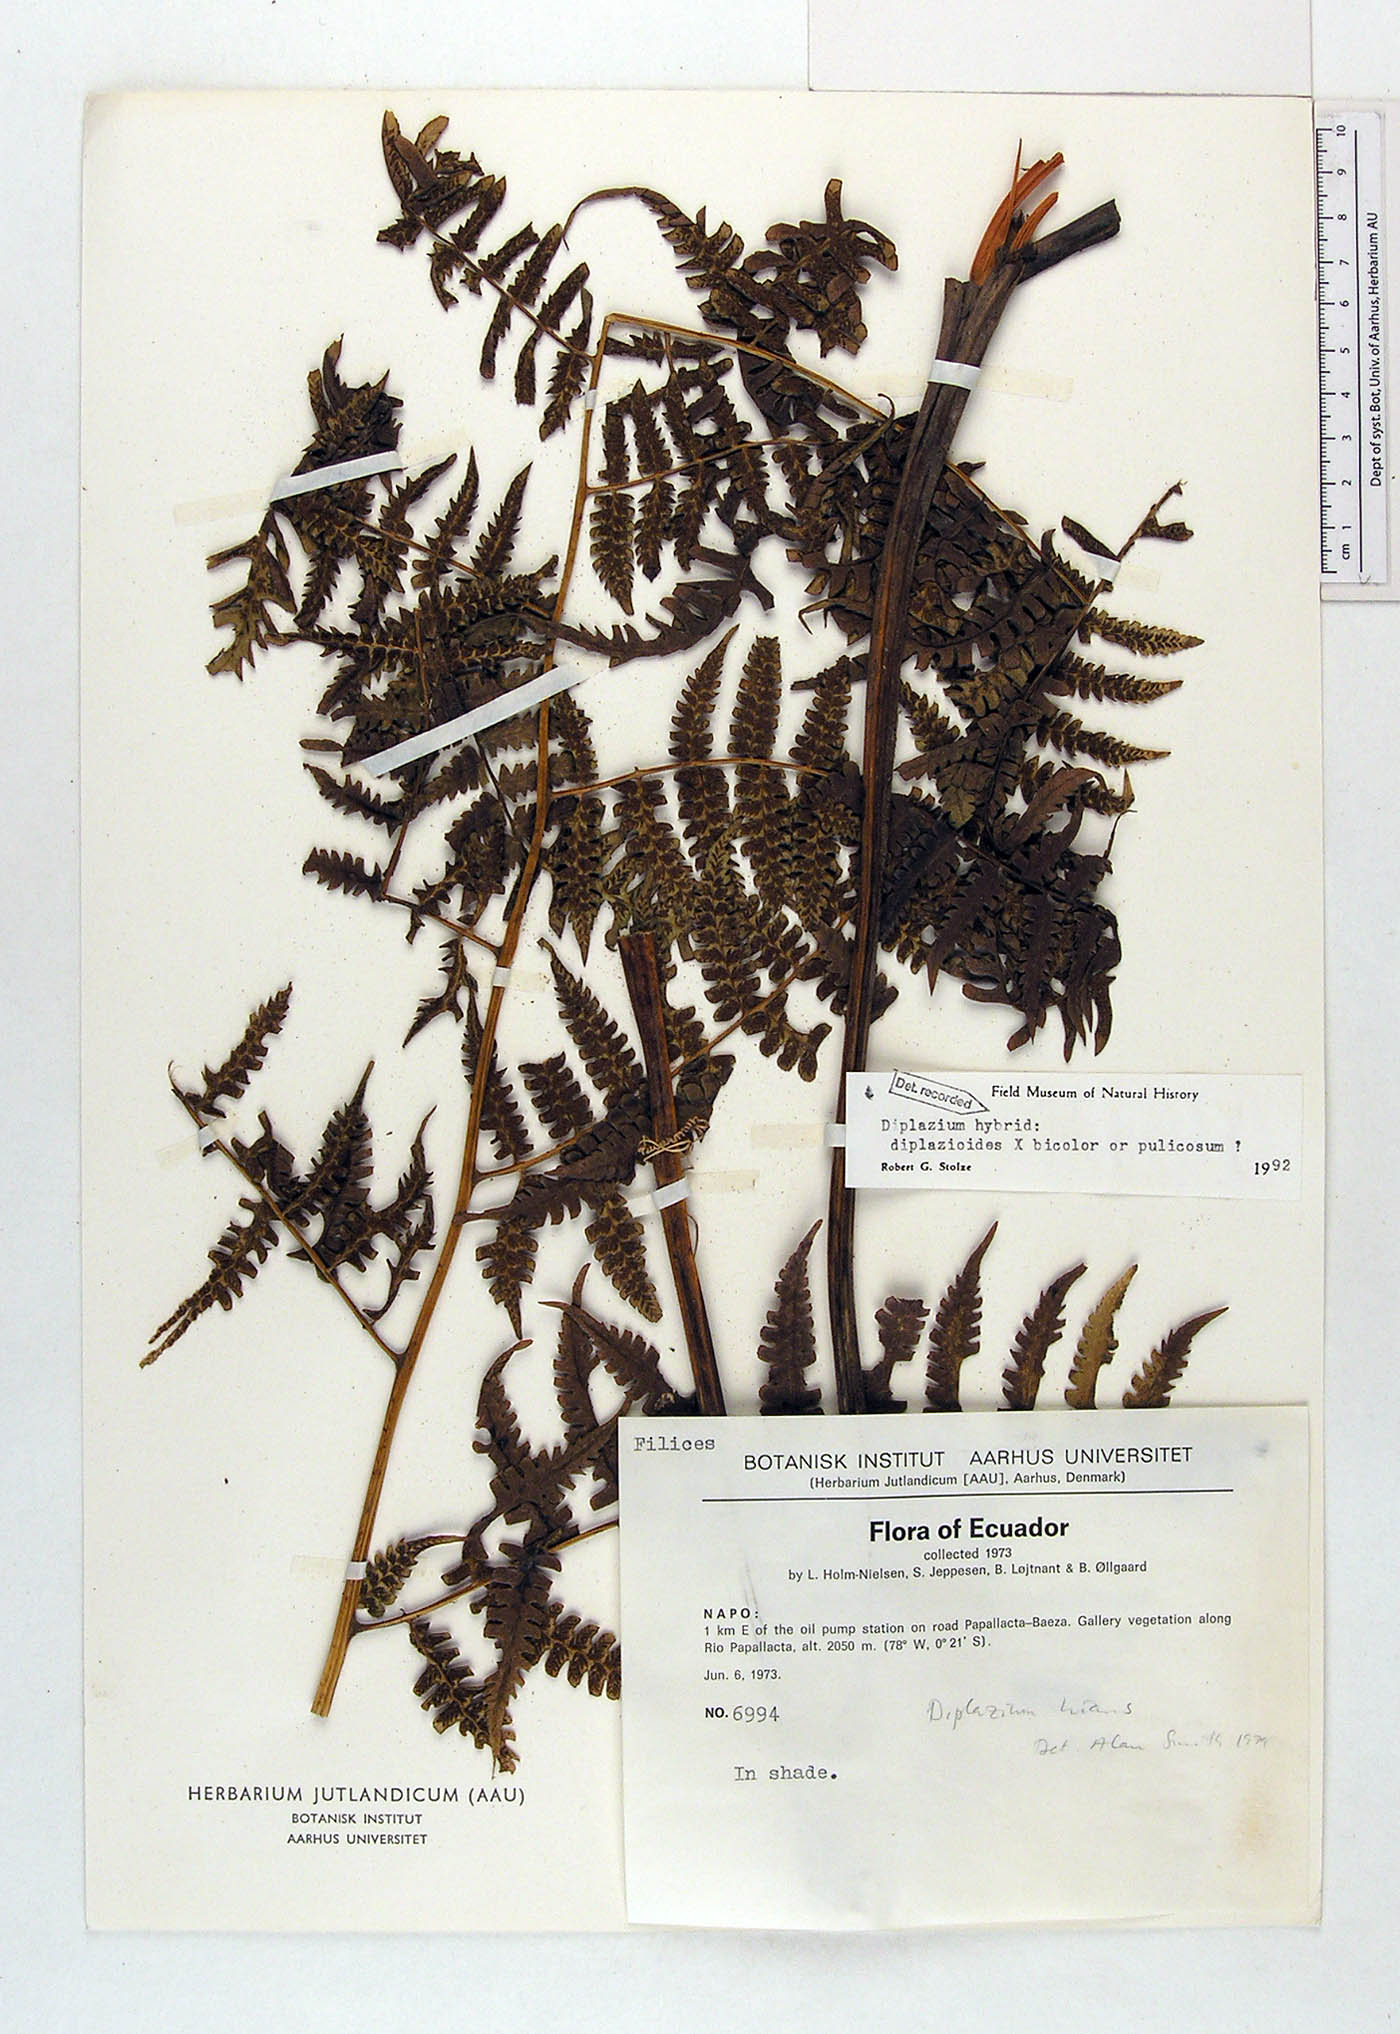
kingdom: Plantae
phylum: Tracheophyta
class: Polypodiopsida
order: Polypodiales
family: Athyriaceae
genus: Diplazium
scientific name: Diplazium
